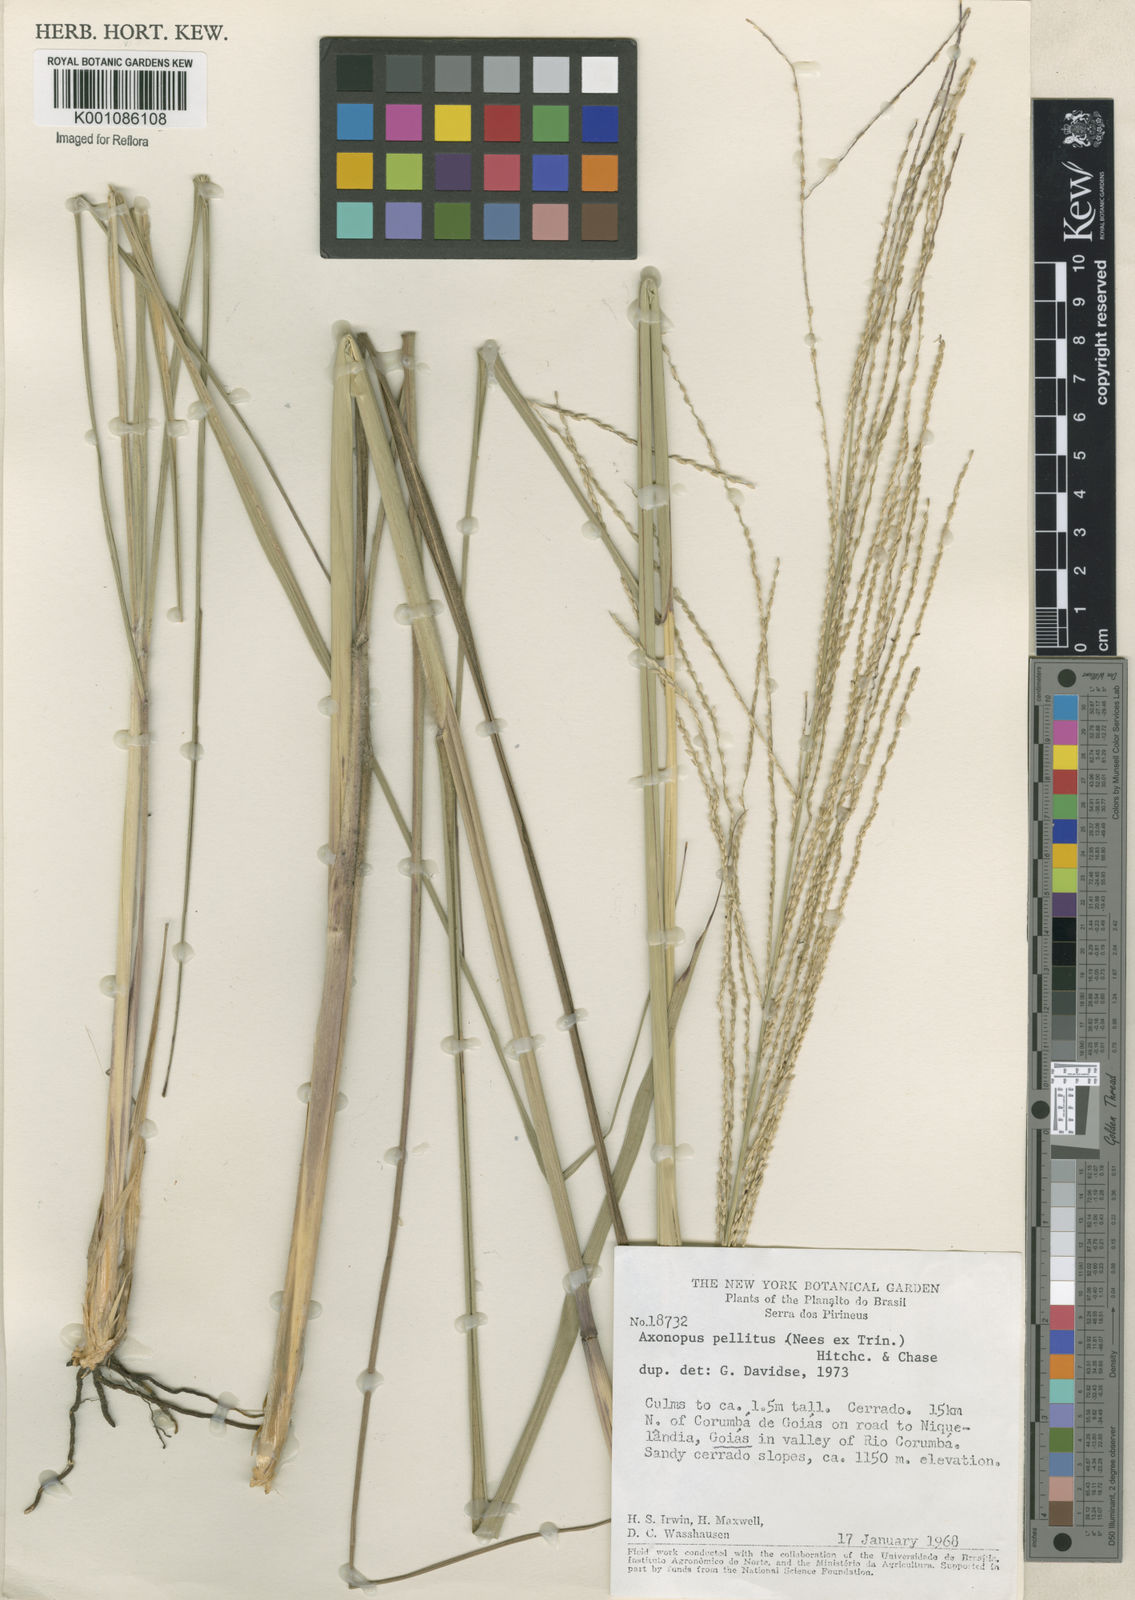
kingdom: Plantae
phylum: Tracheophyta
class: Liliopsida
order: Poales
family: Poaceae
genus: Axonopus
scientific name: Axonopus siccus
